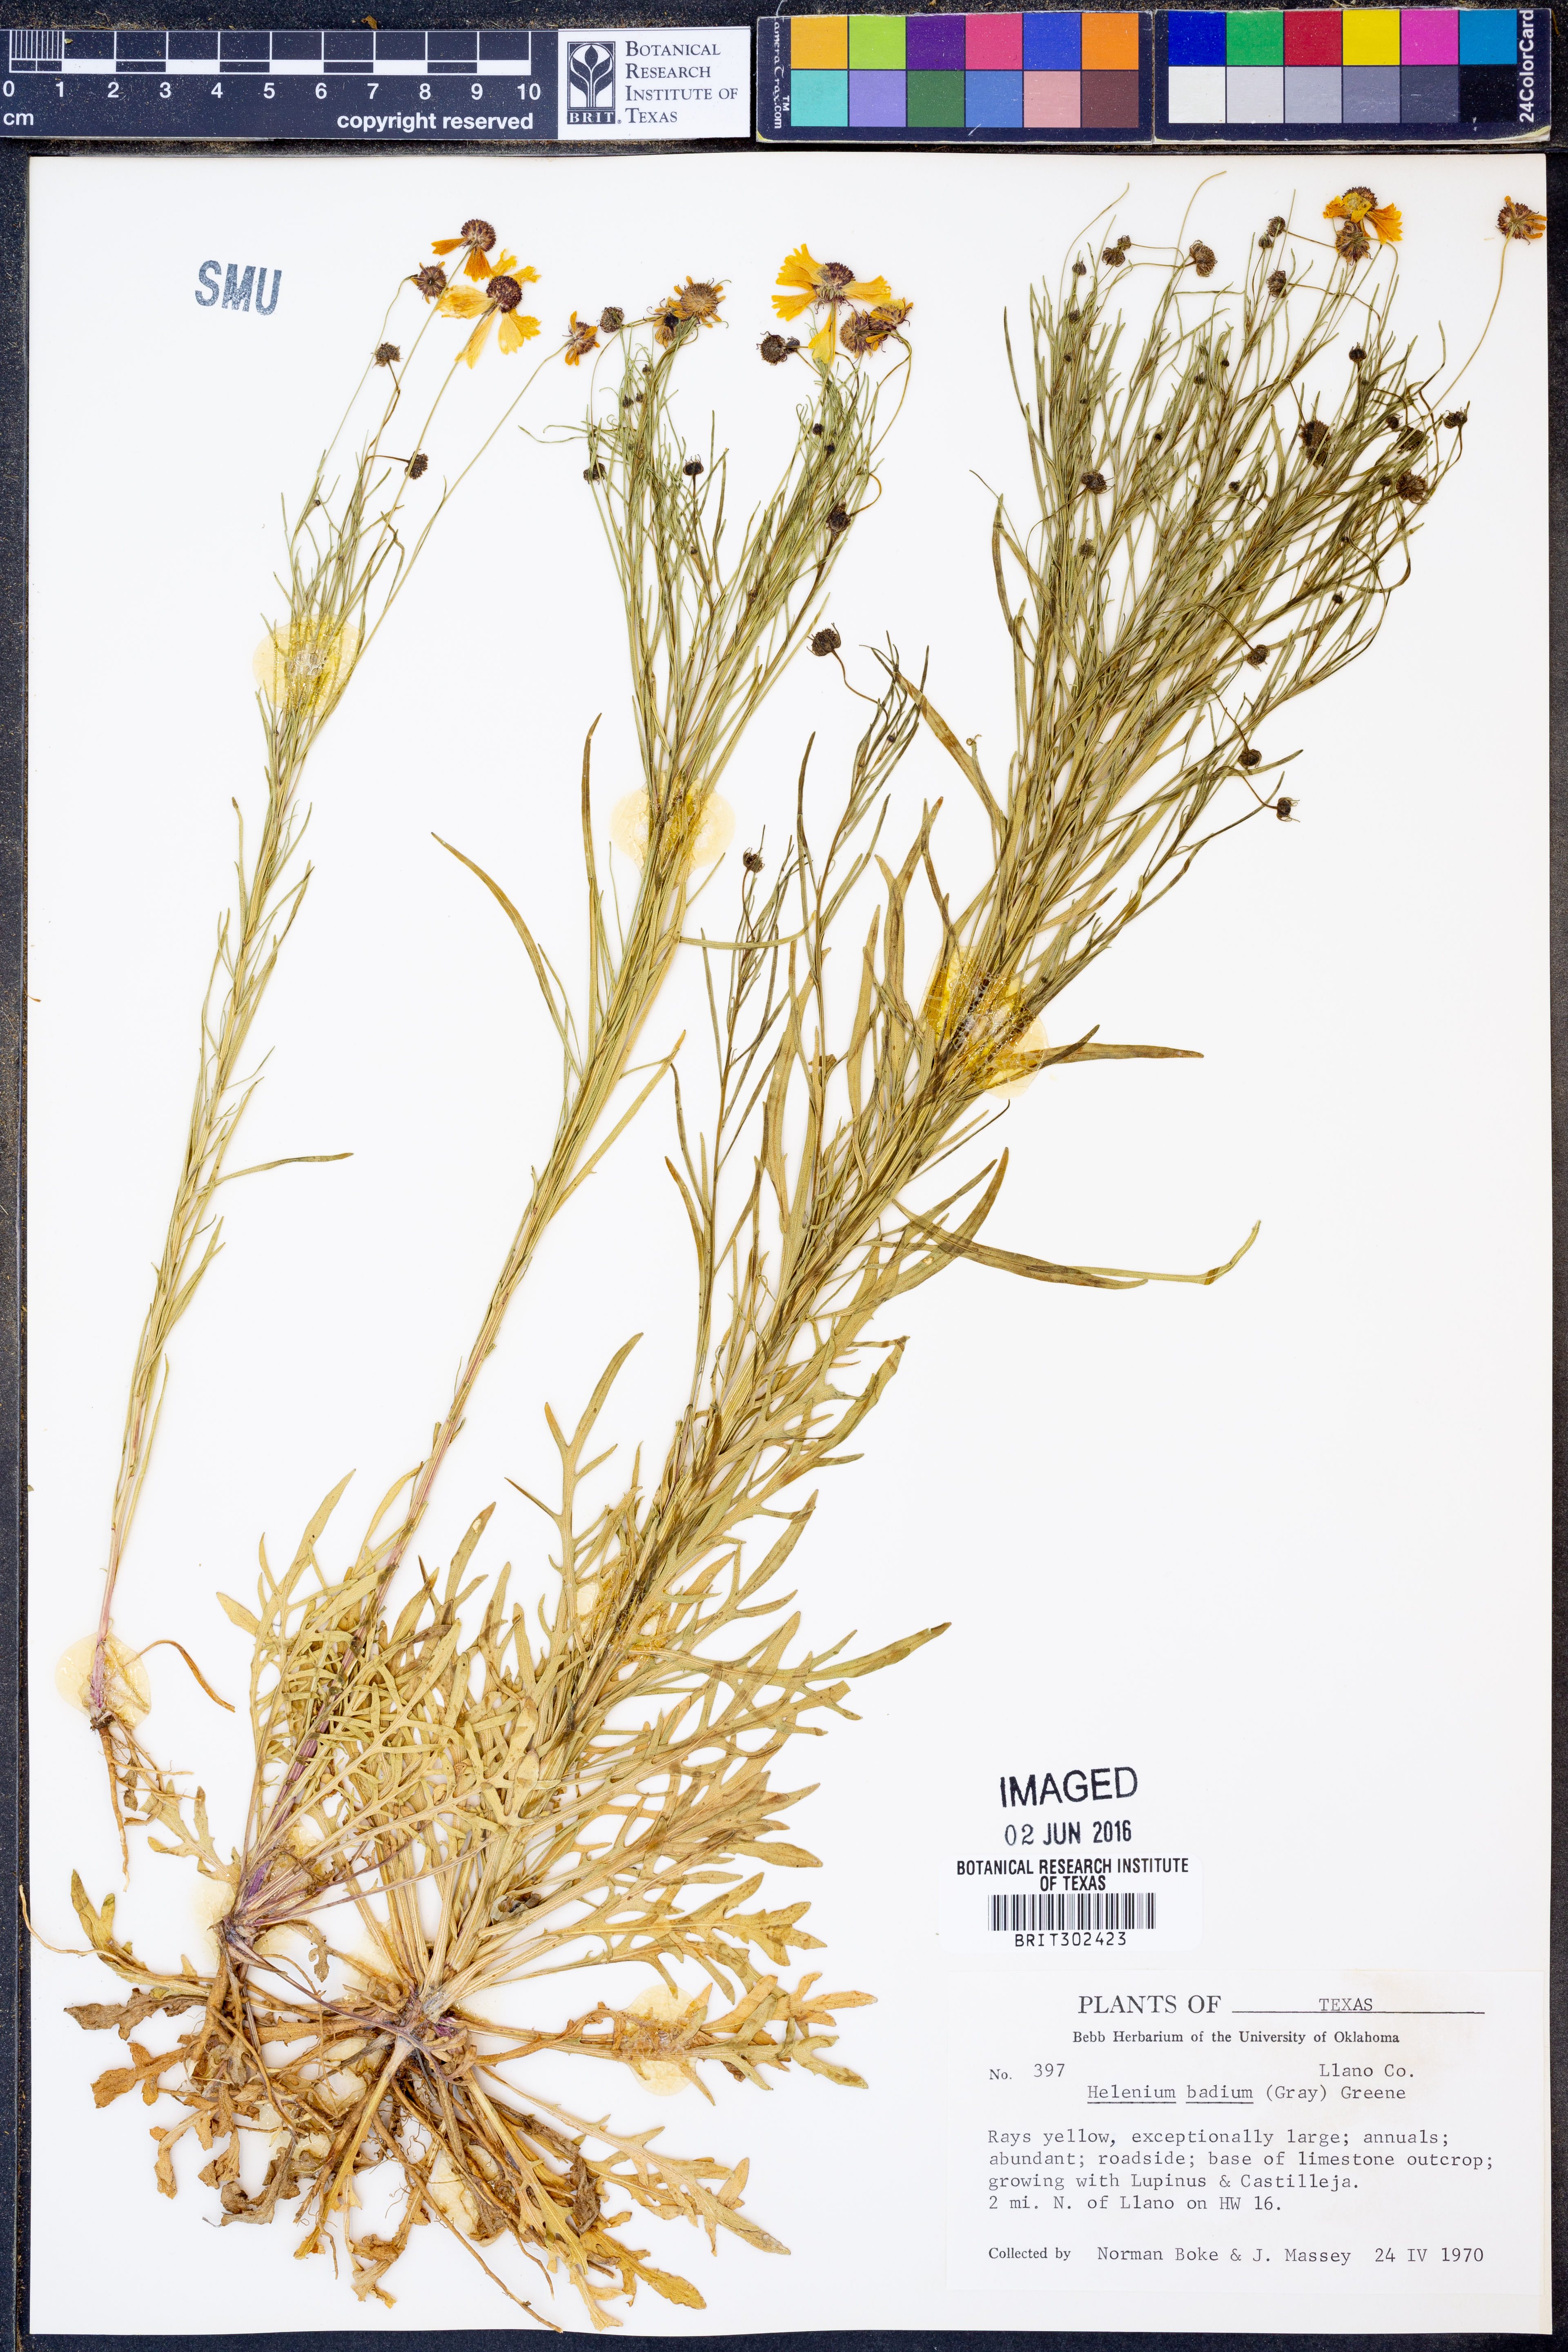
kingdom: Plantae
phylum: Tracheophyta
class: Magnoliopsida
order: Asterales
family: Asteraceae
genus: Helenium
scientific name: Helenium amarum
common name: Bitter sneezeweed
